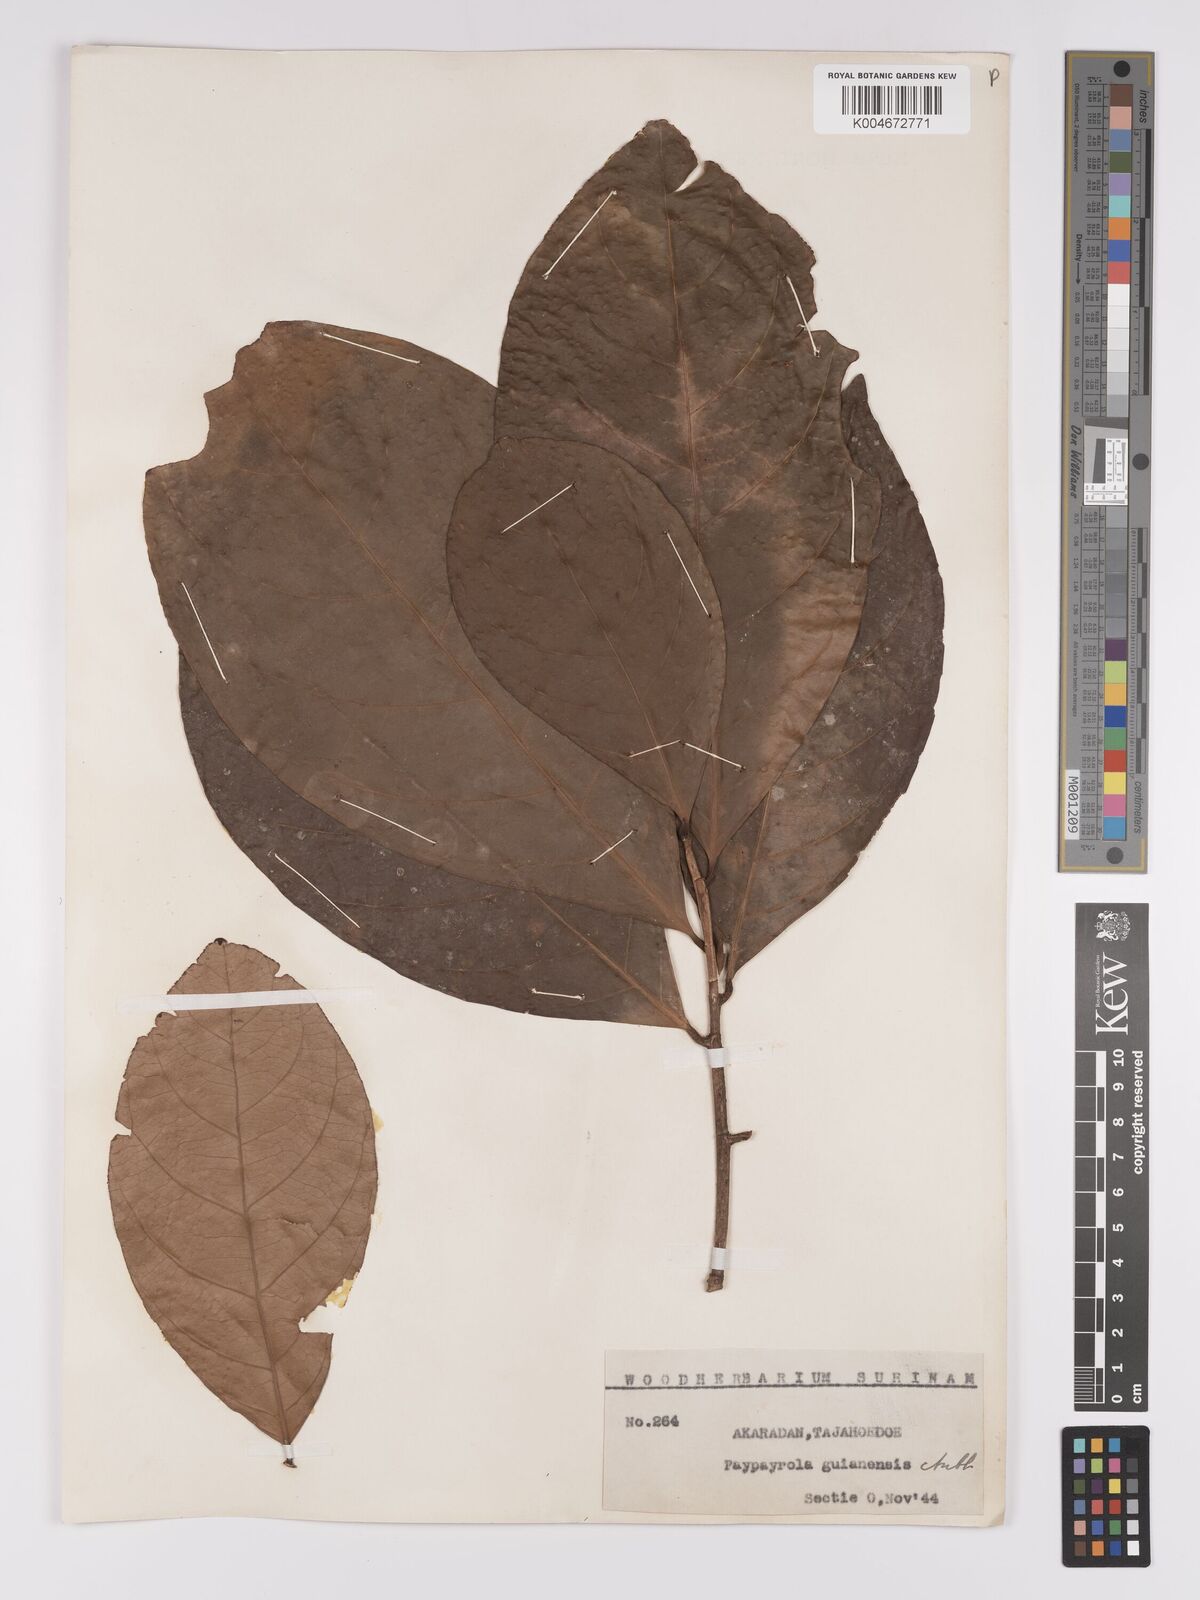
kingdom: Plantae
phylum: Tracheophyta
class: Magnoliopsida
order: Malpighiales
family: Violaceae
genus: Paypayrola
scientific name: Paypayrola guianensis
